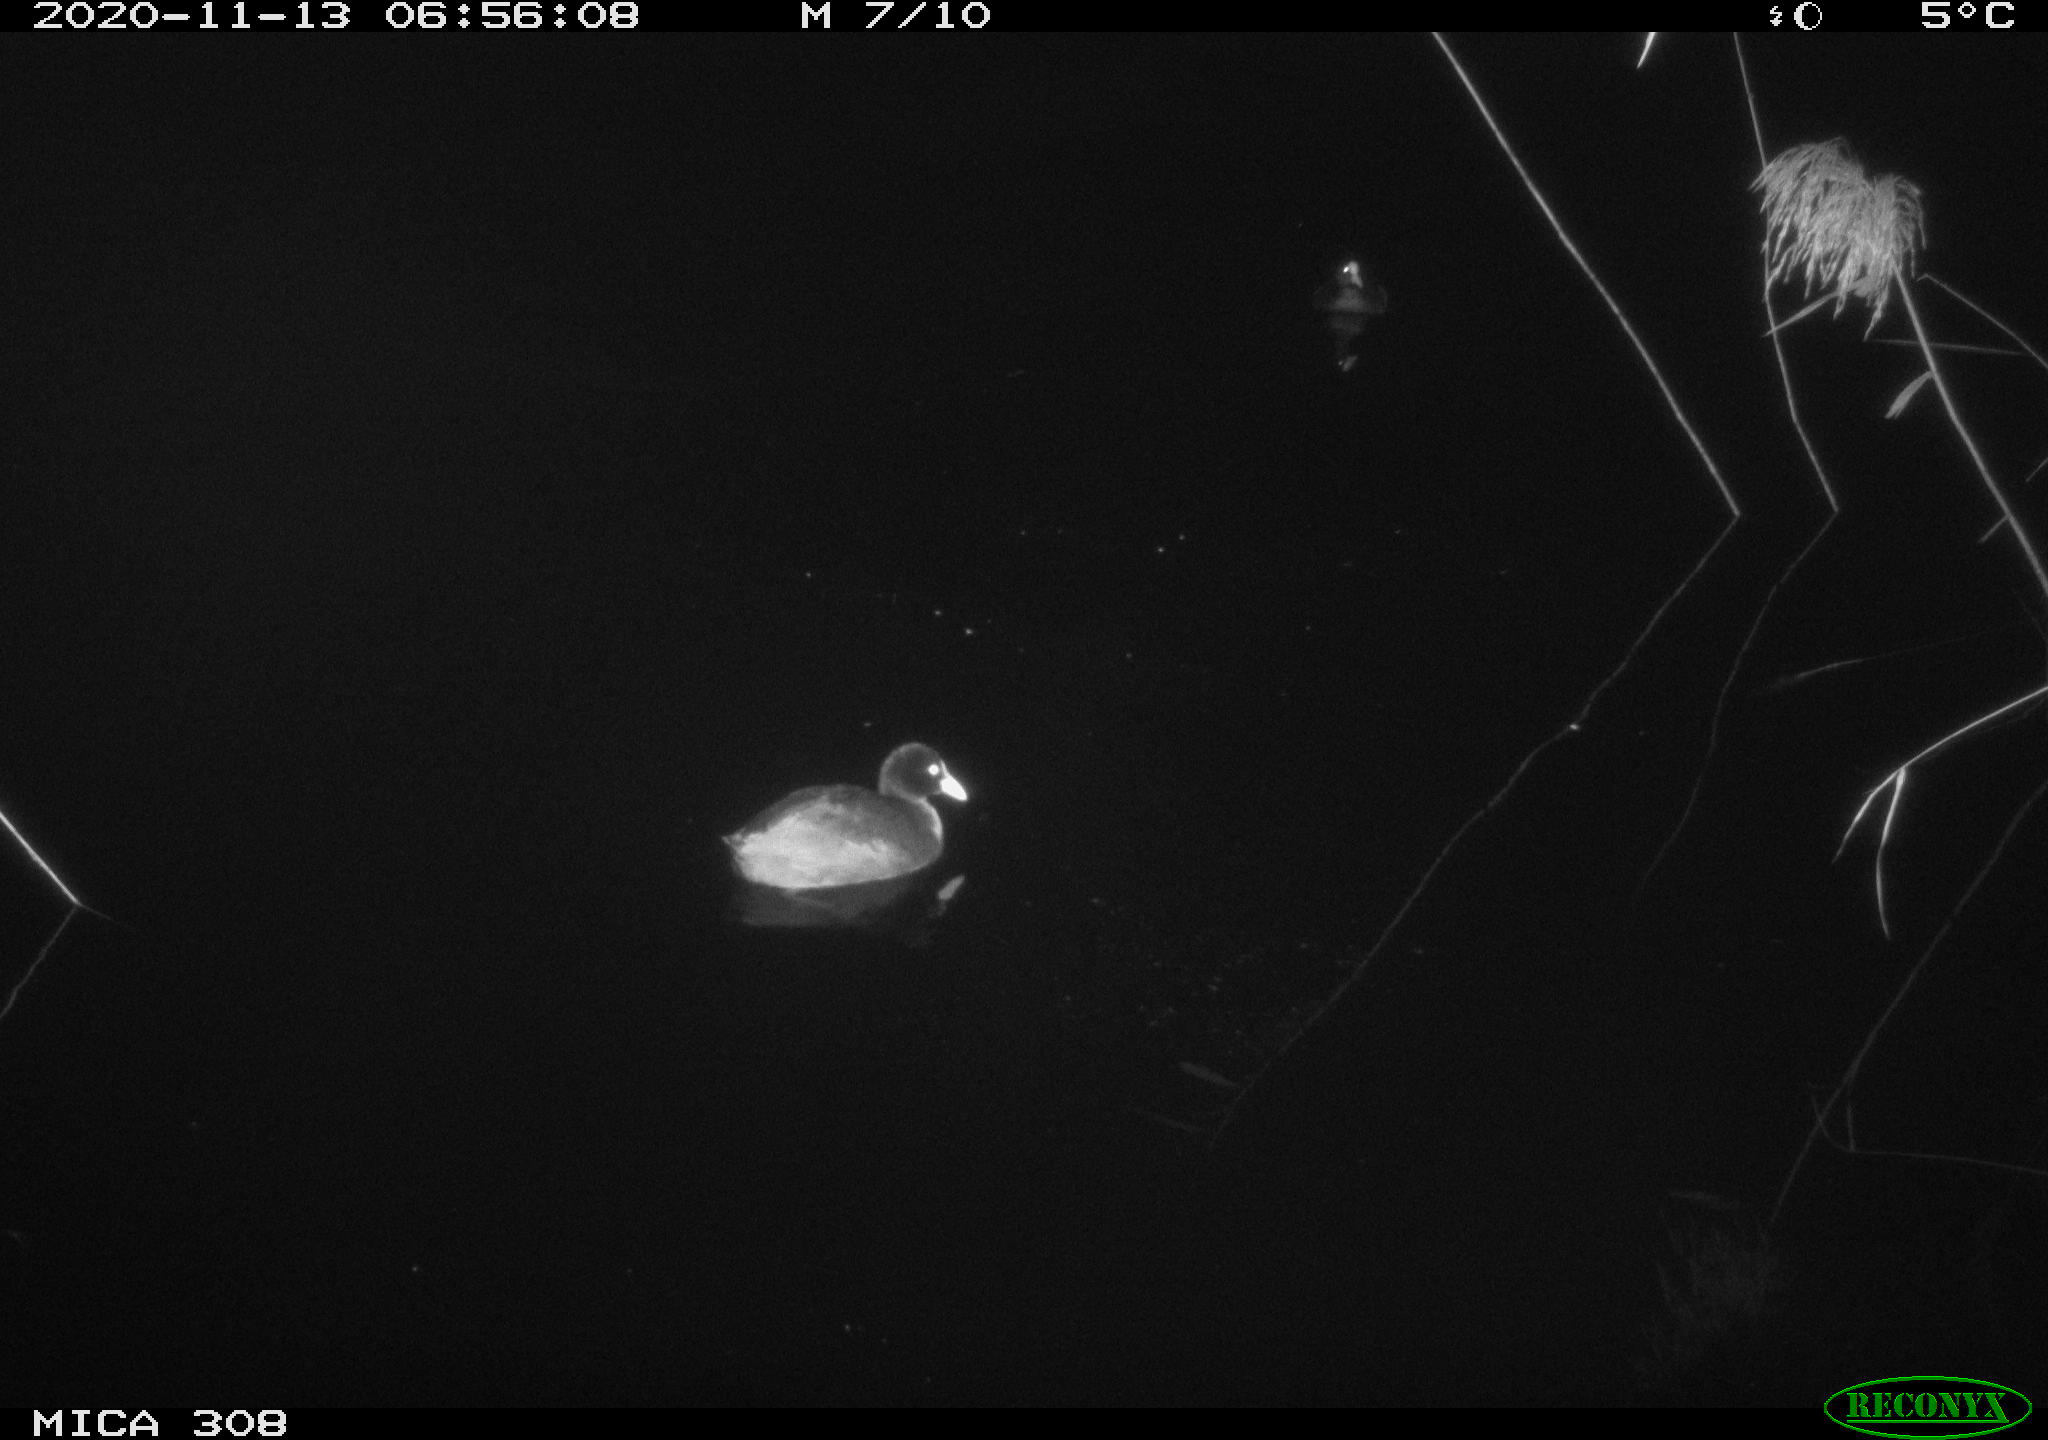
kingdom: Animalia
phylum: Chordata
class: Mammalia
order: Rodentia
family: Muridae
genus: Rattus
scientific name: Rattus norvegicus
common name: Brown rat
